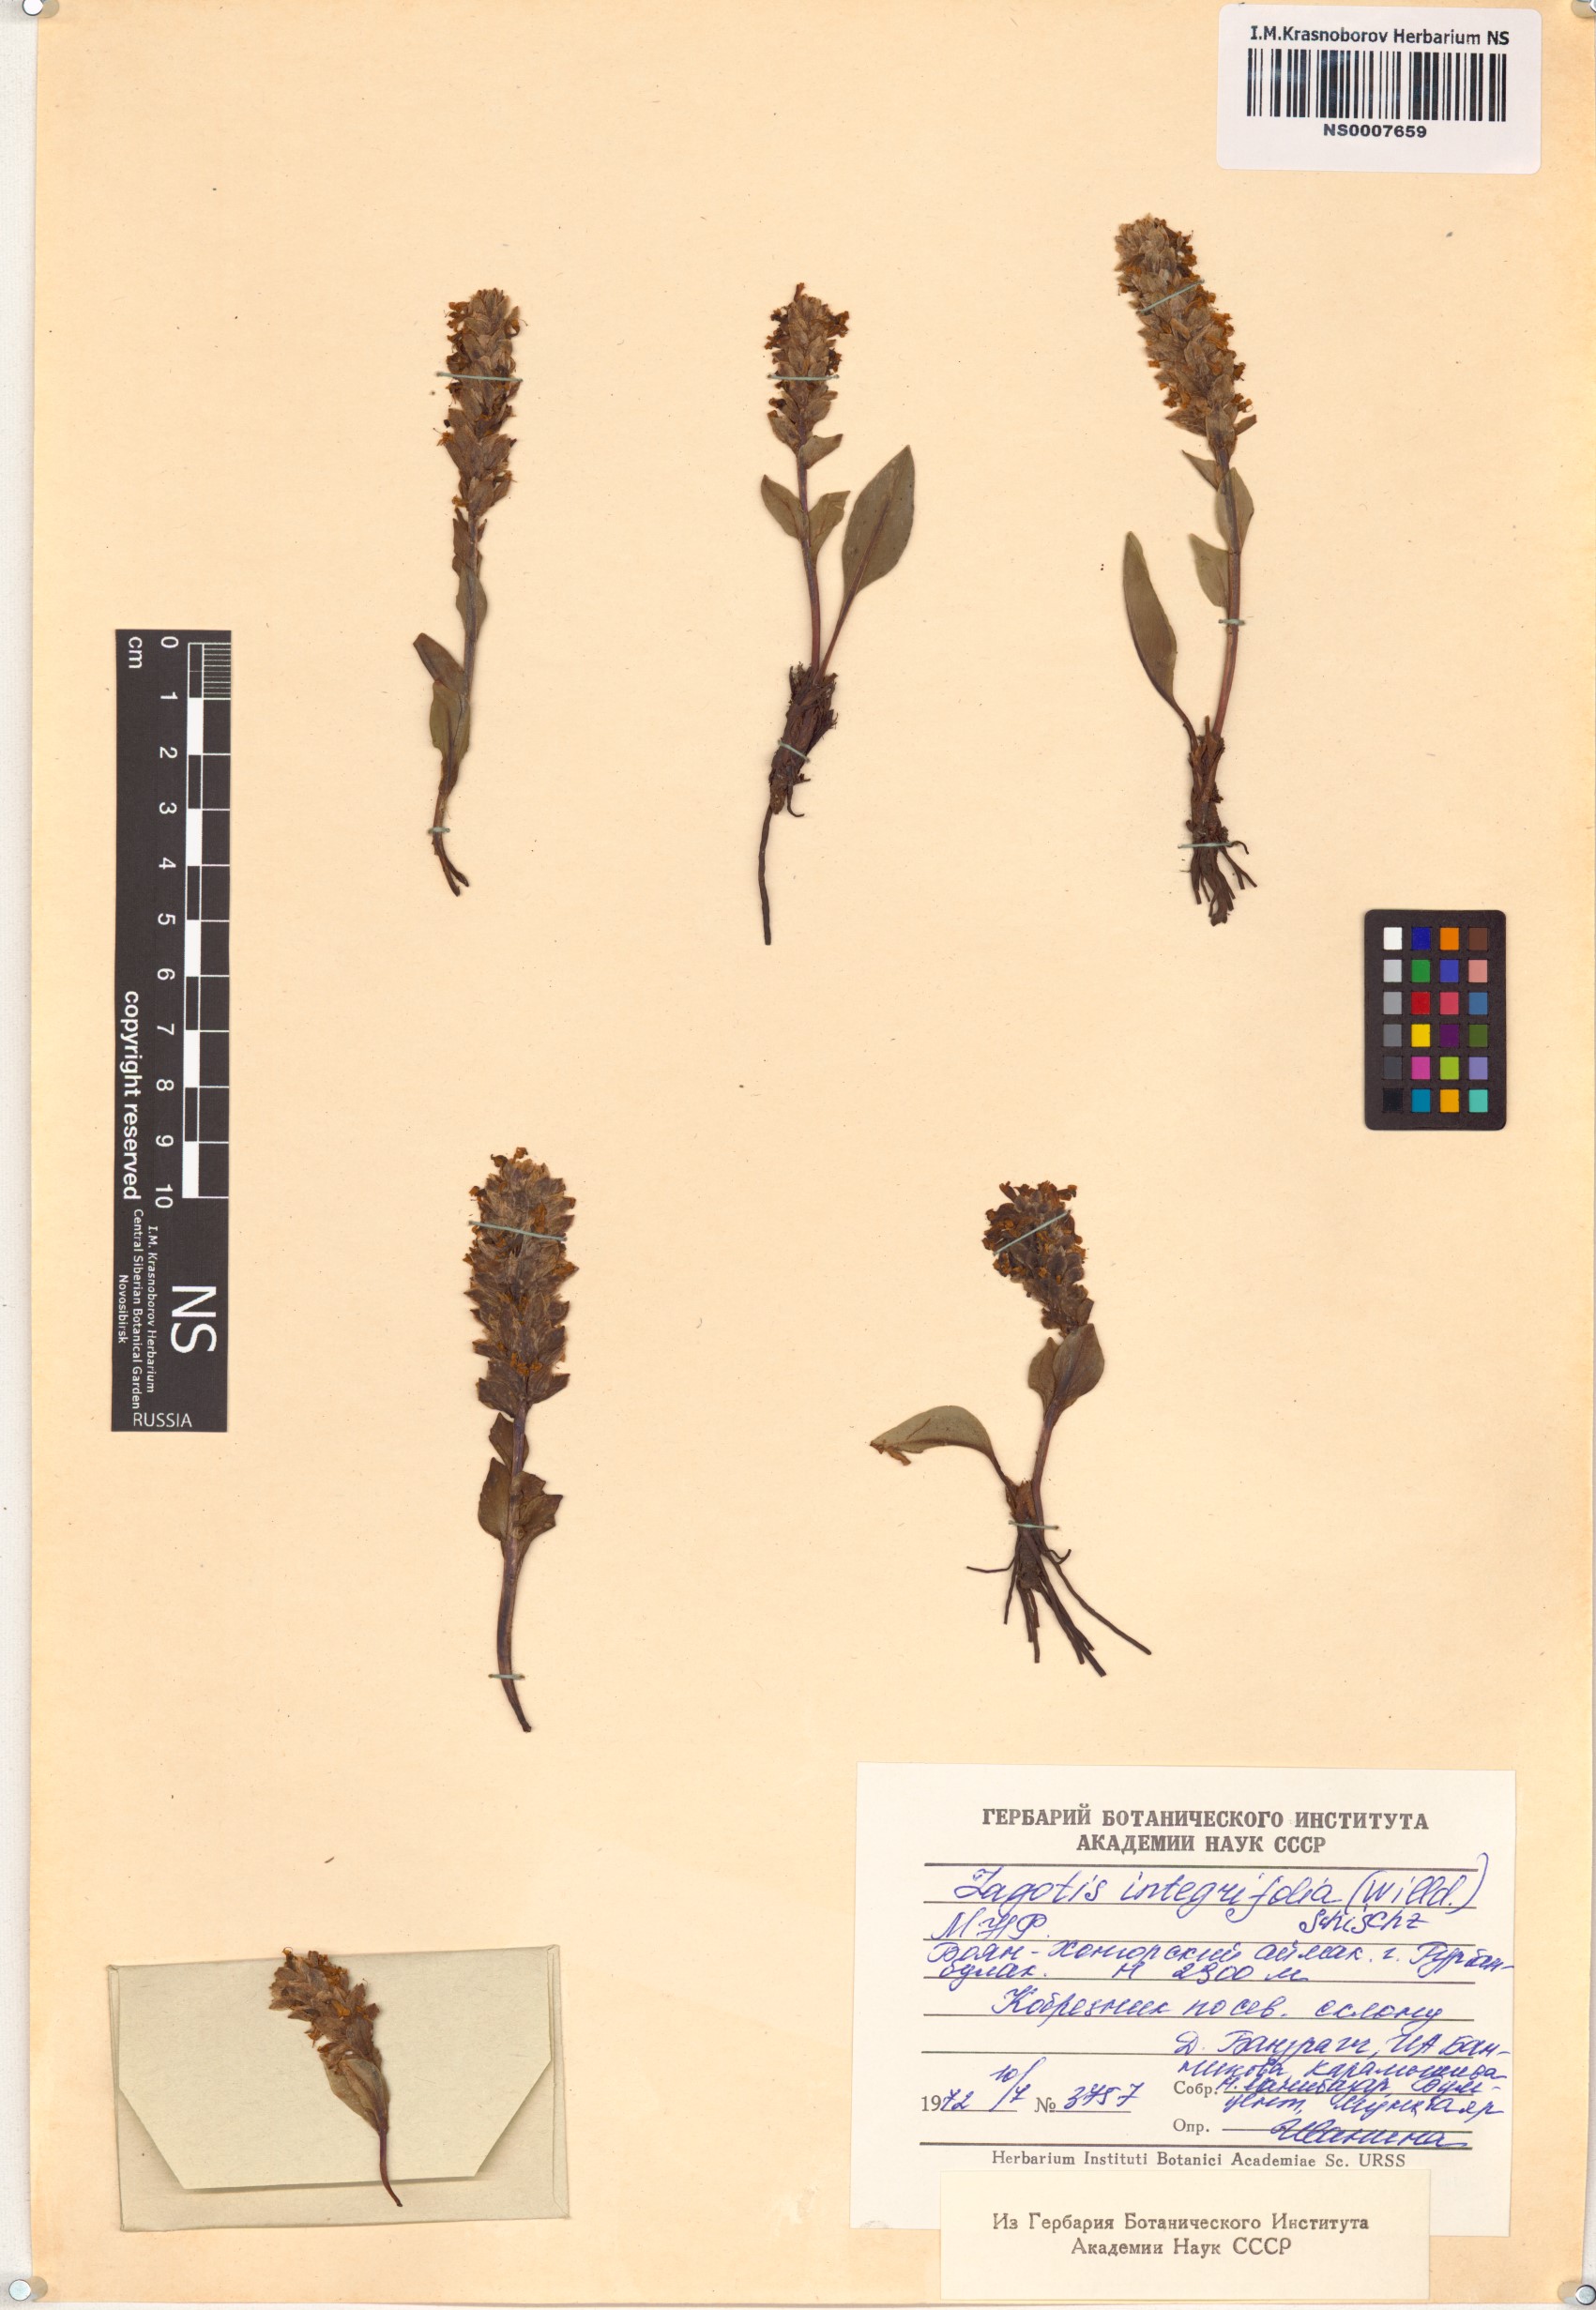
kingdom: Plantae
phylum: Tracheophyta
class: Magnoliopsida
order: Lamiales
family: Plantaginaceae
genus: Lagotis
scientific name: Lagotis integrifolia
